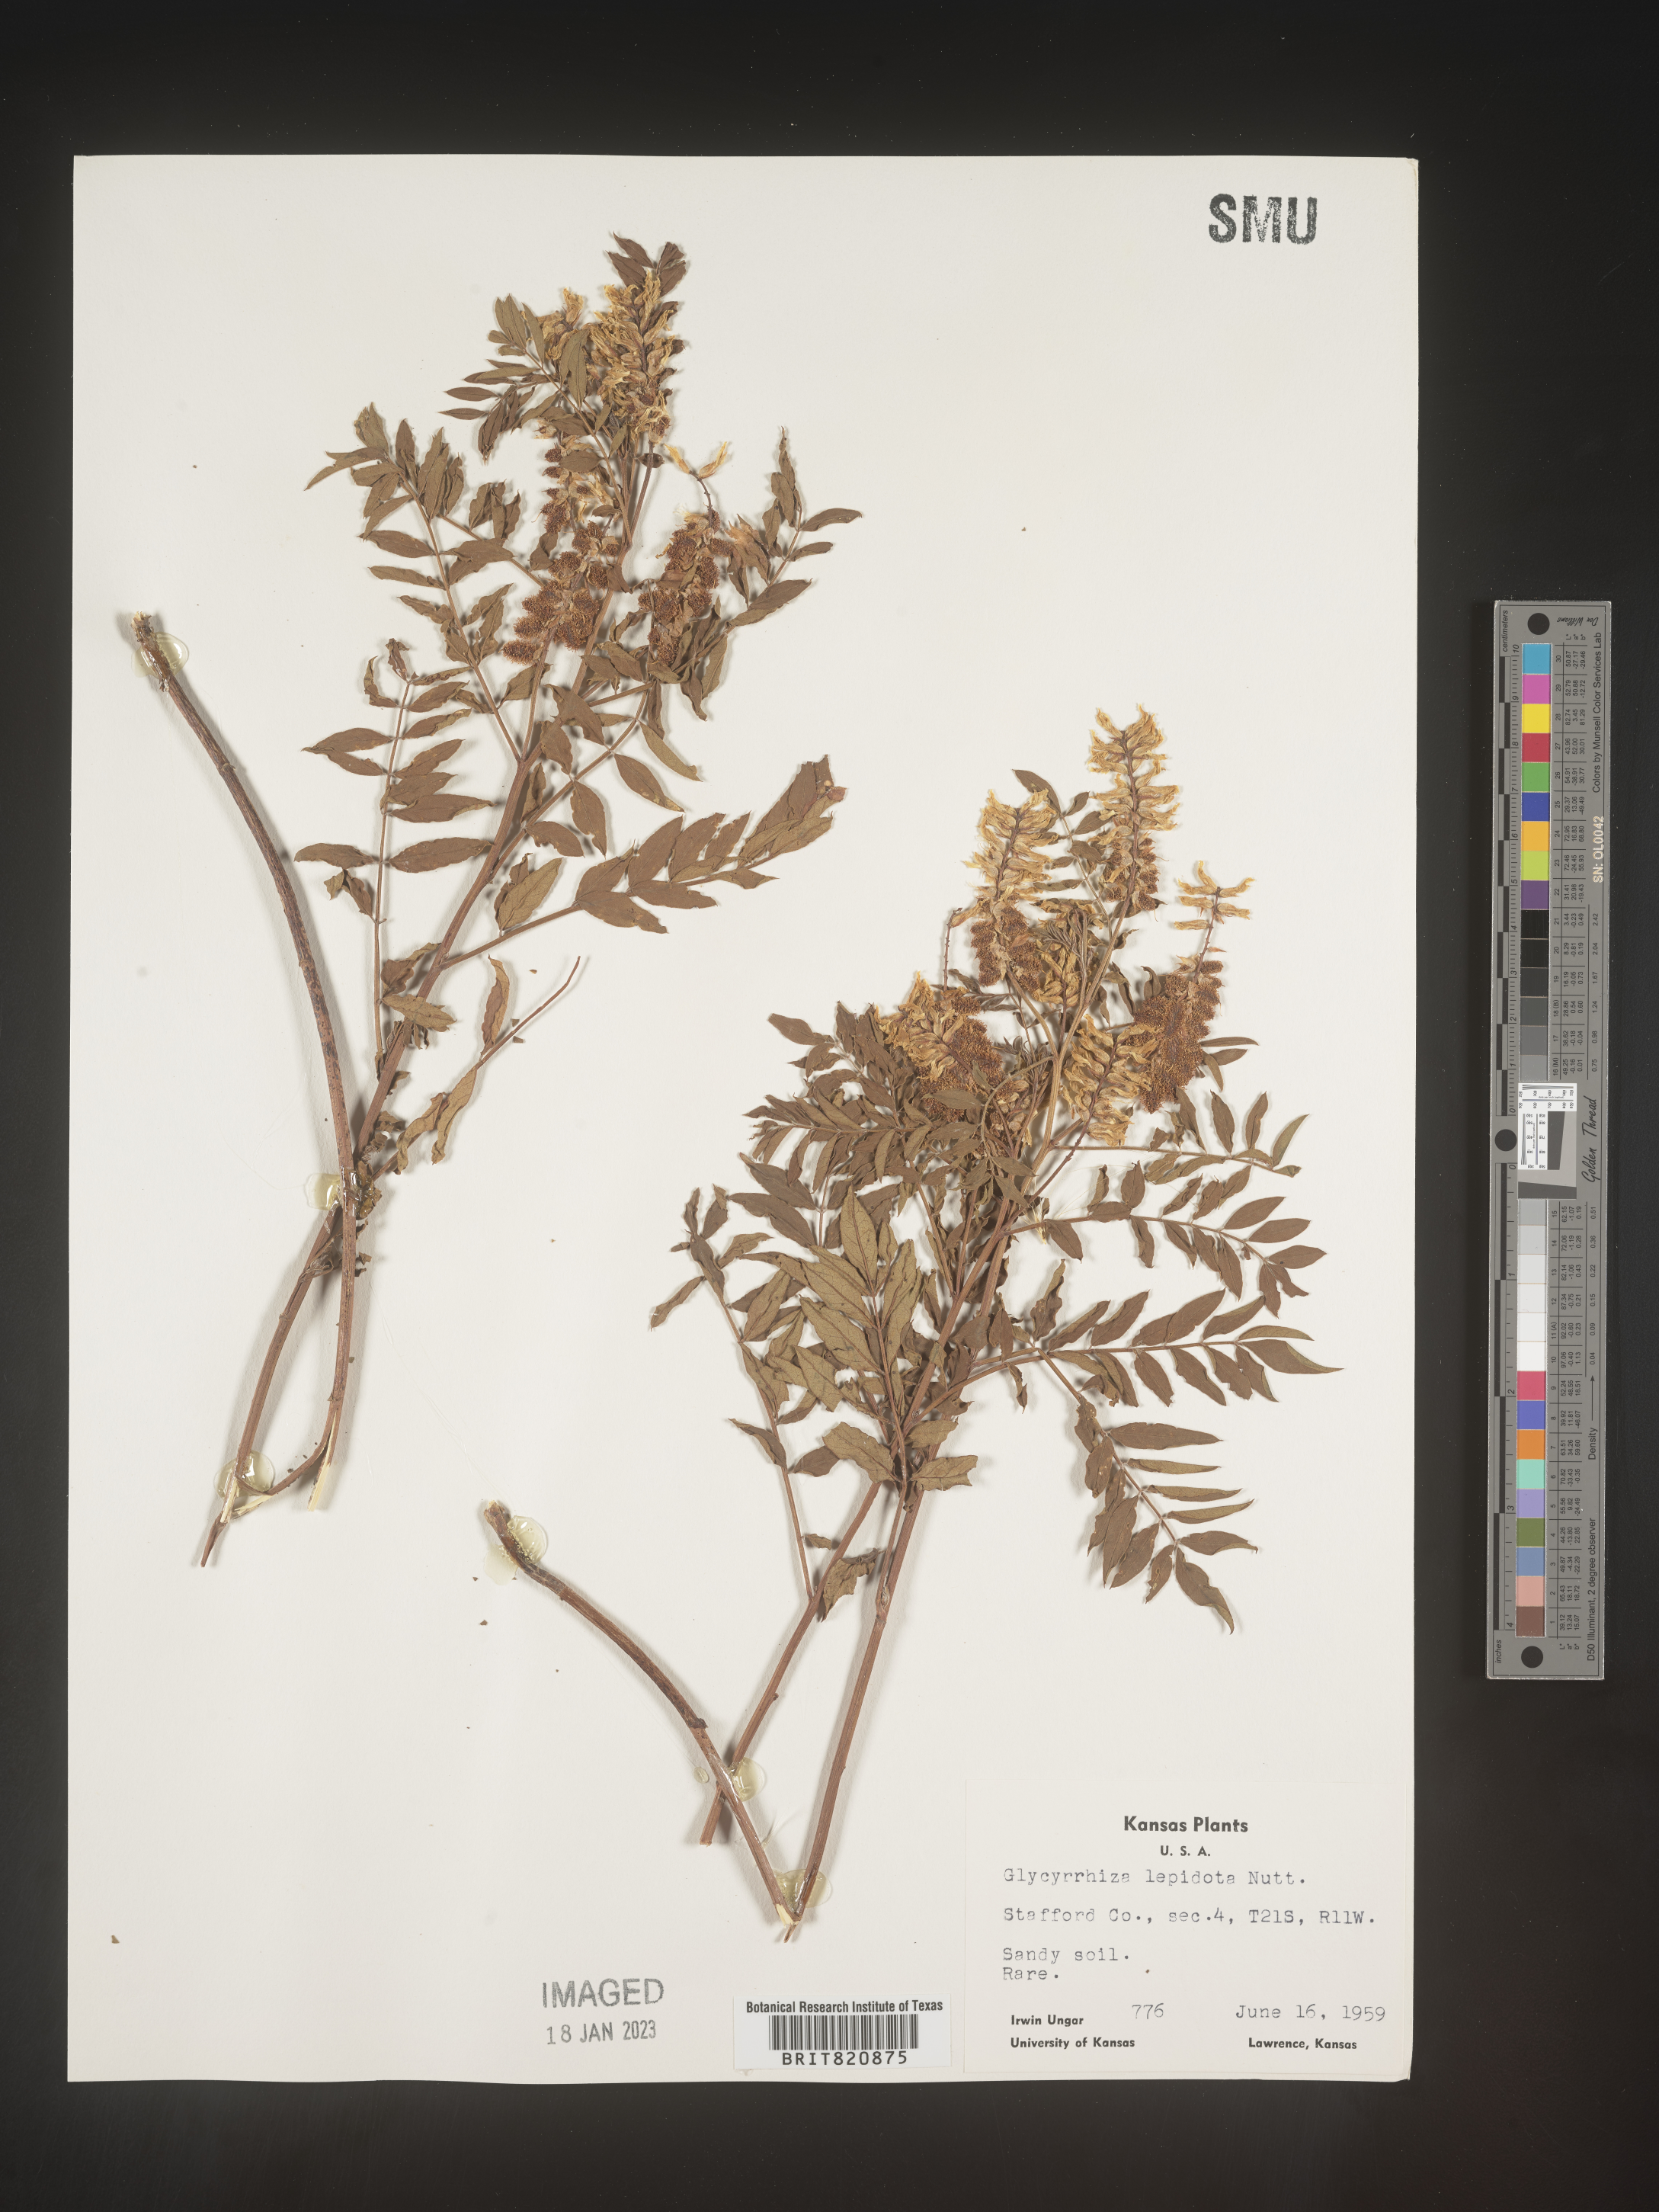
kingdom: Plantae
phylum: Tracheophyta
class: Magnoliopsida
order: Fabales
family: Fabaceae
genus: Glycyrrhiza
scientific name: Glycyrrhiza lepidota
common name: American liquorice
